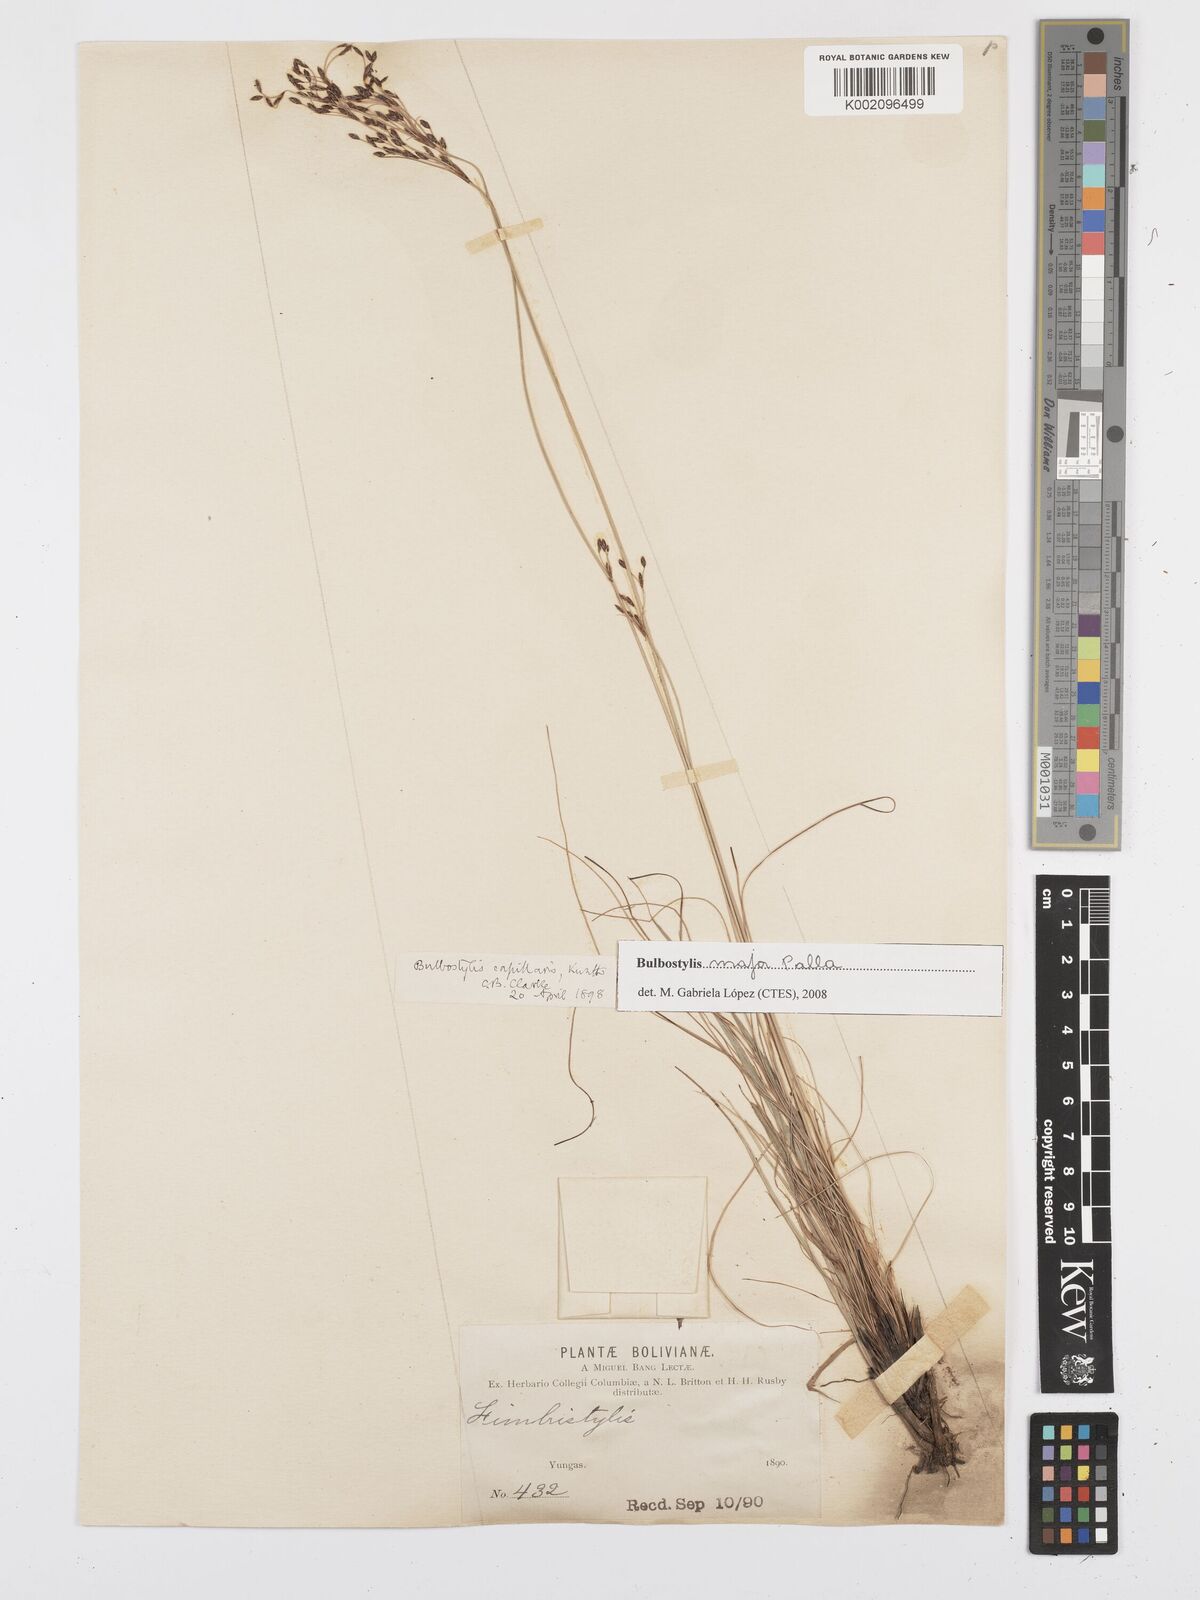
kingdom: Plantae
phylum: Tracheophyta
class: Liliopsida
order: Poales
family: Cyperaceae
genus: Bulbostylis
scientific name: Bulbostylis major
